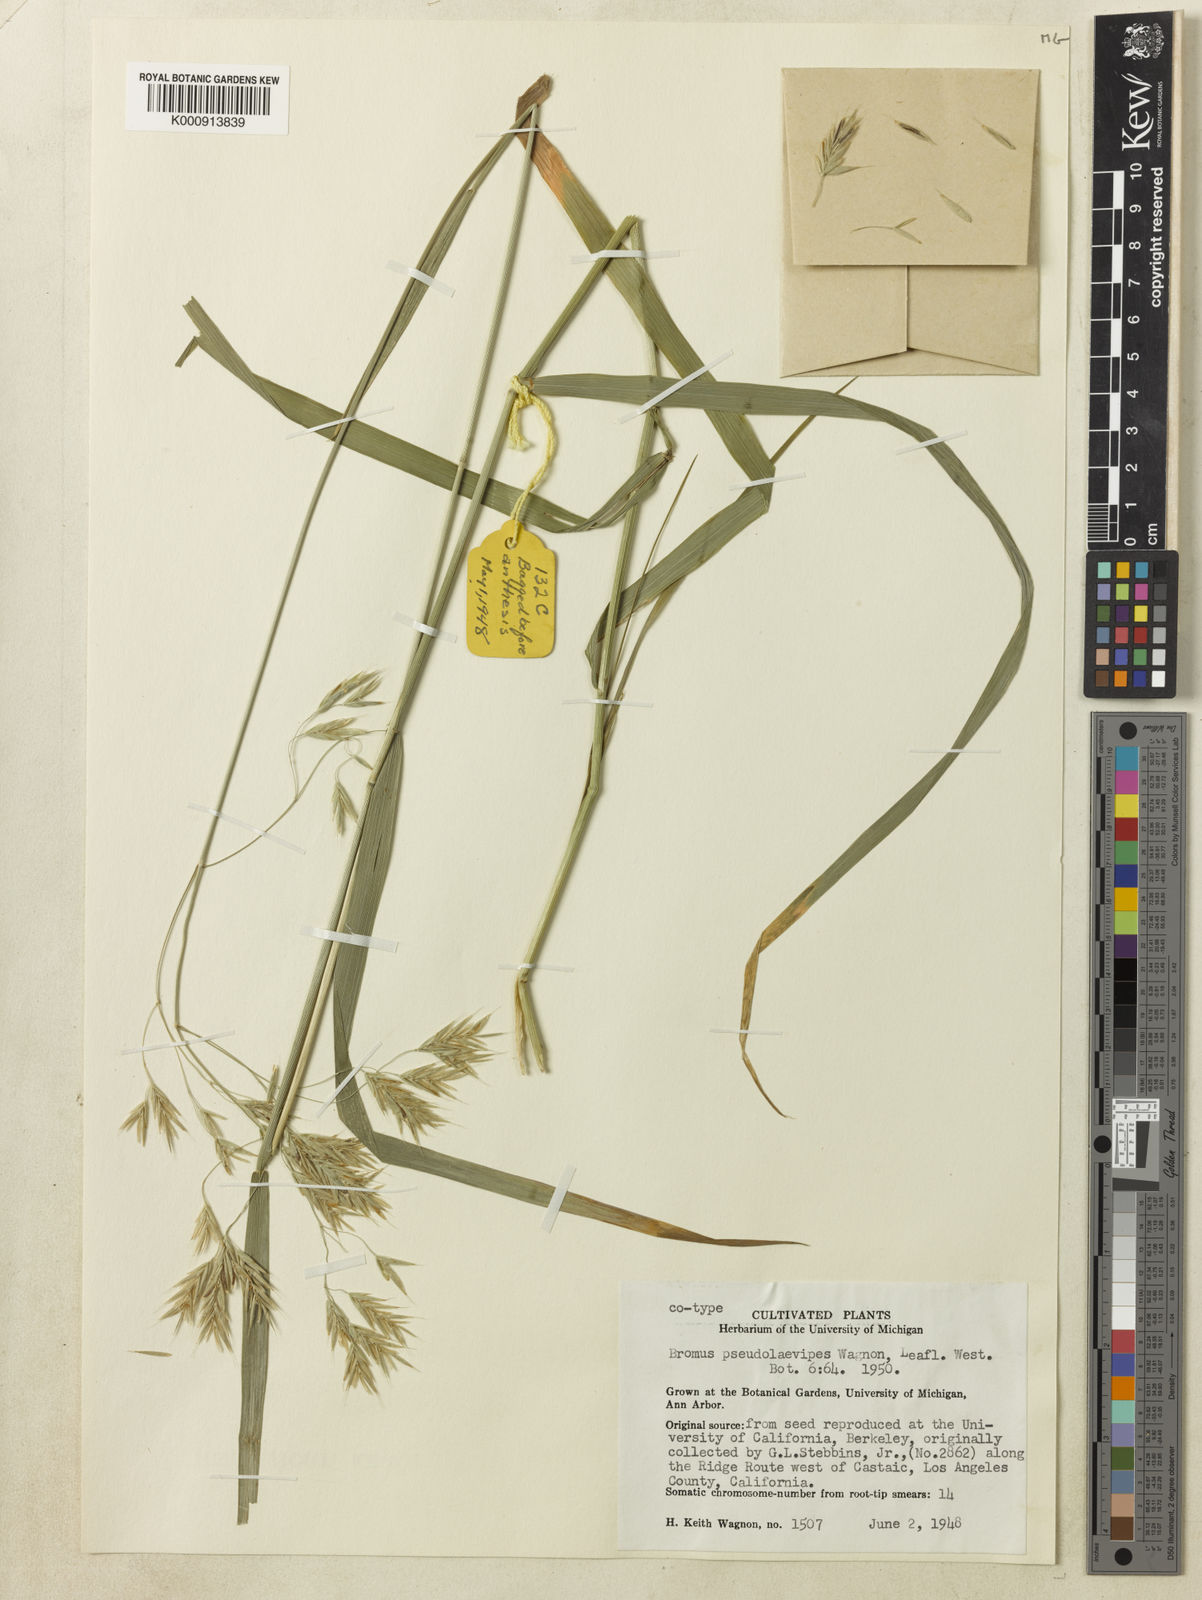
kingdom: Plantae
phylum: Tracheophyta
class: Liliopsida
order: Poales
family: Poaceae
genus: Bromus
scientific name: Bromus pseudolaevipes
